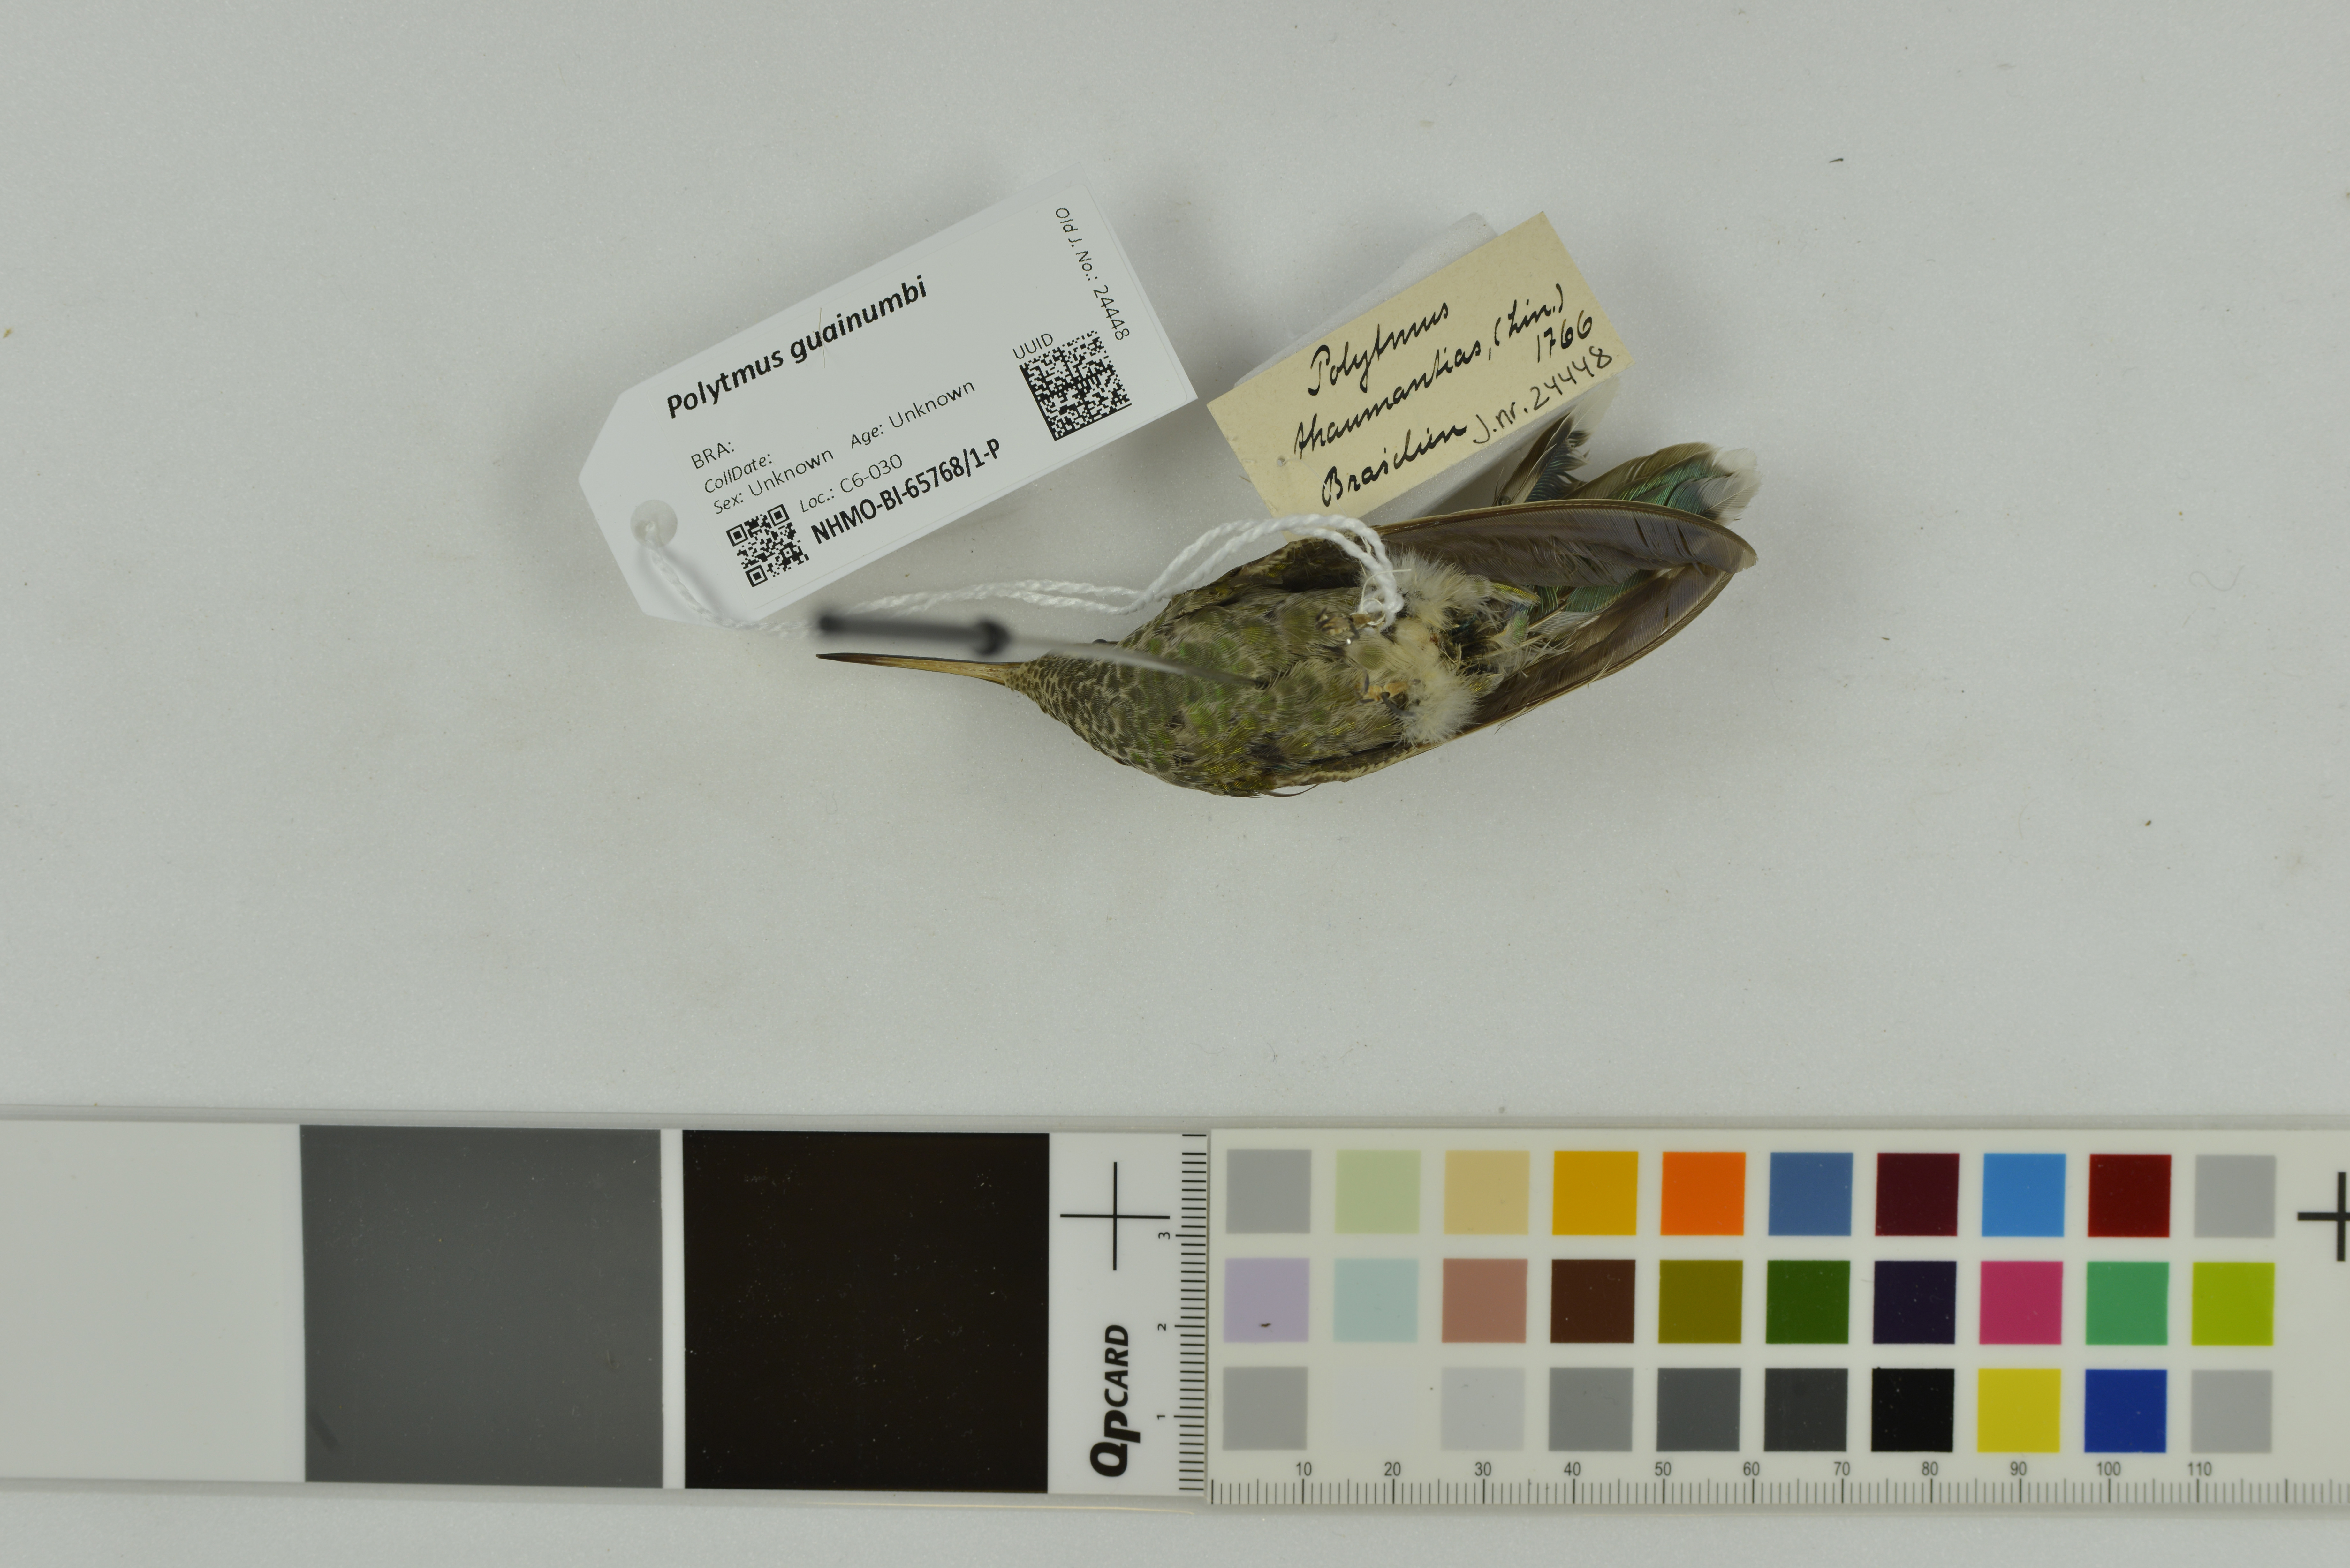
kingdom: Animalia
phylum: Chordata
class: Aves
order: Apodiformes
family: Trochilidae
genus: Polytmus
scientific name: Polytmus guainumbi
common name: White-tailed goldenthroat
